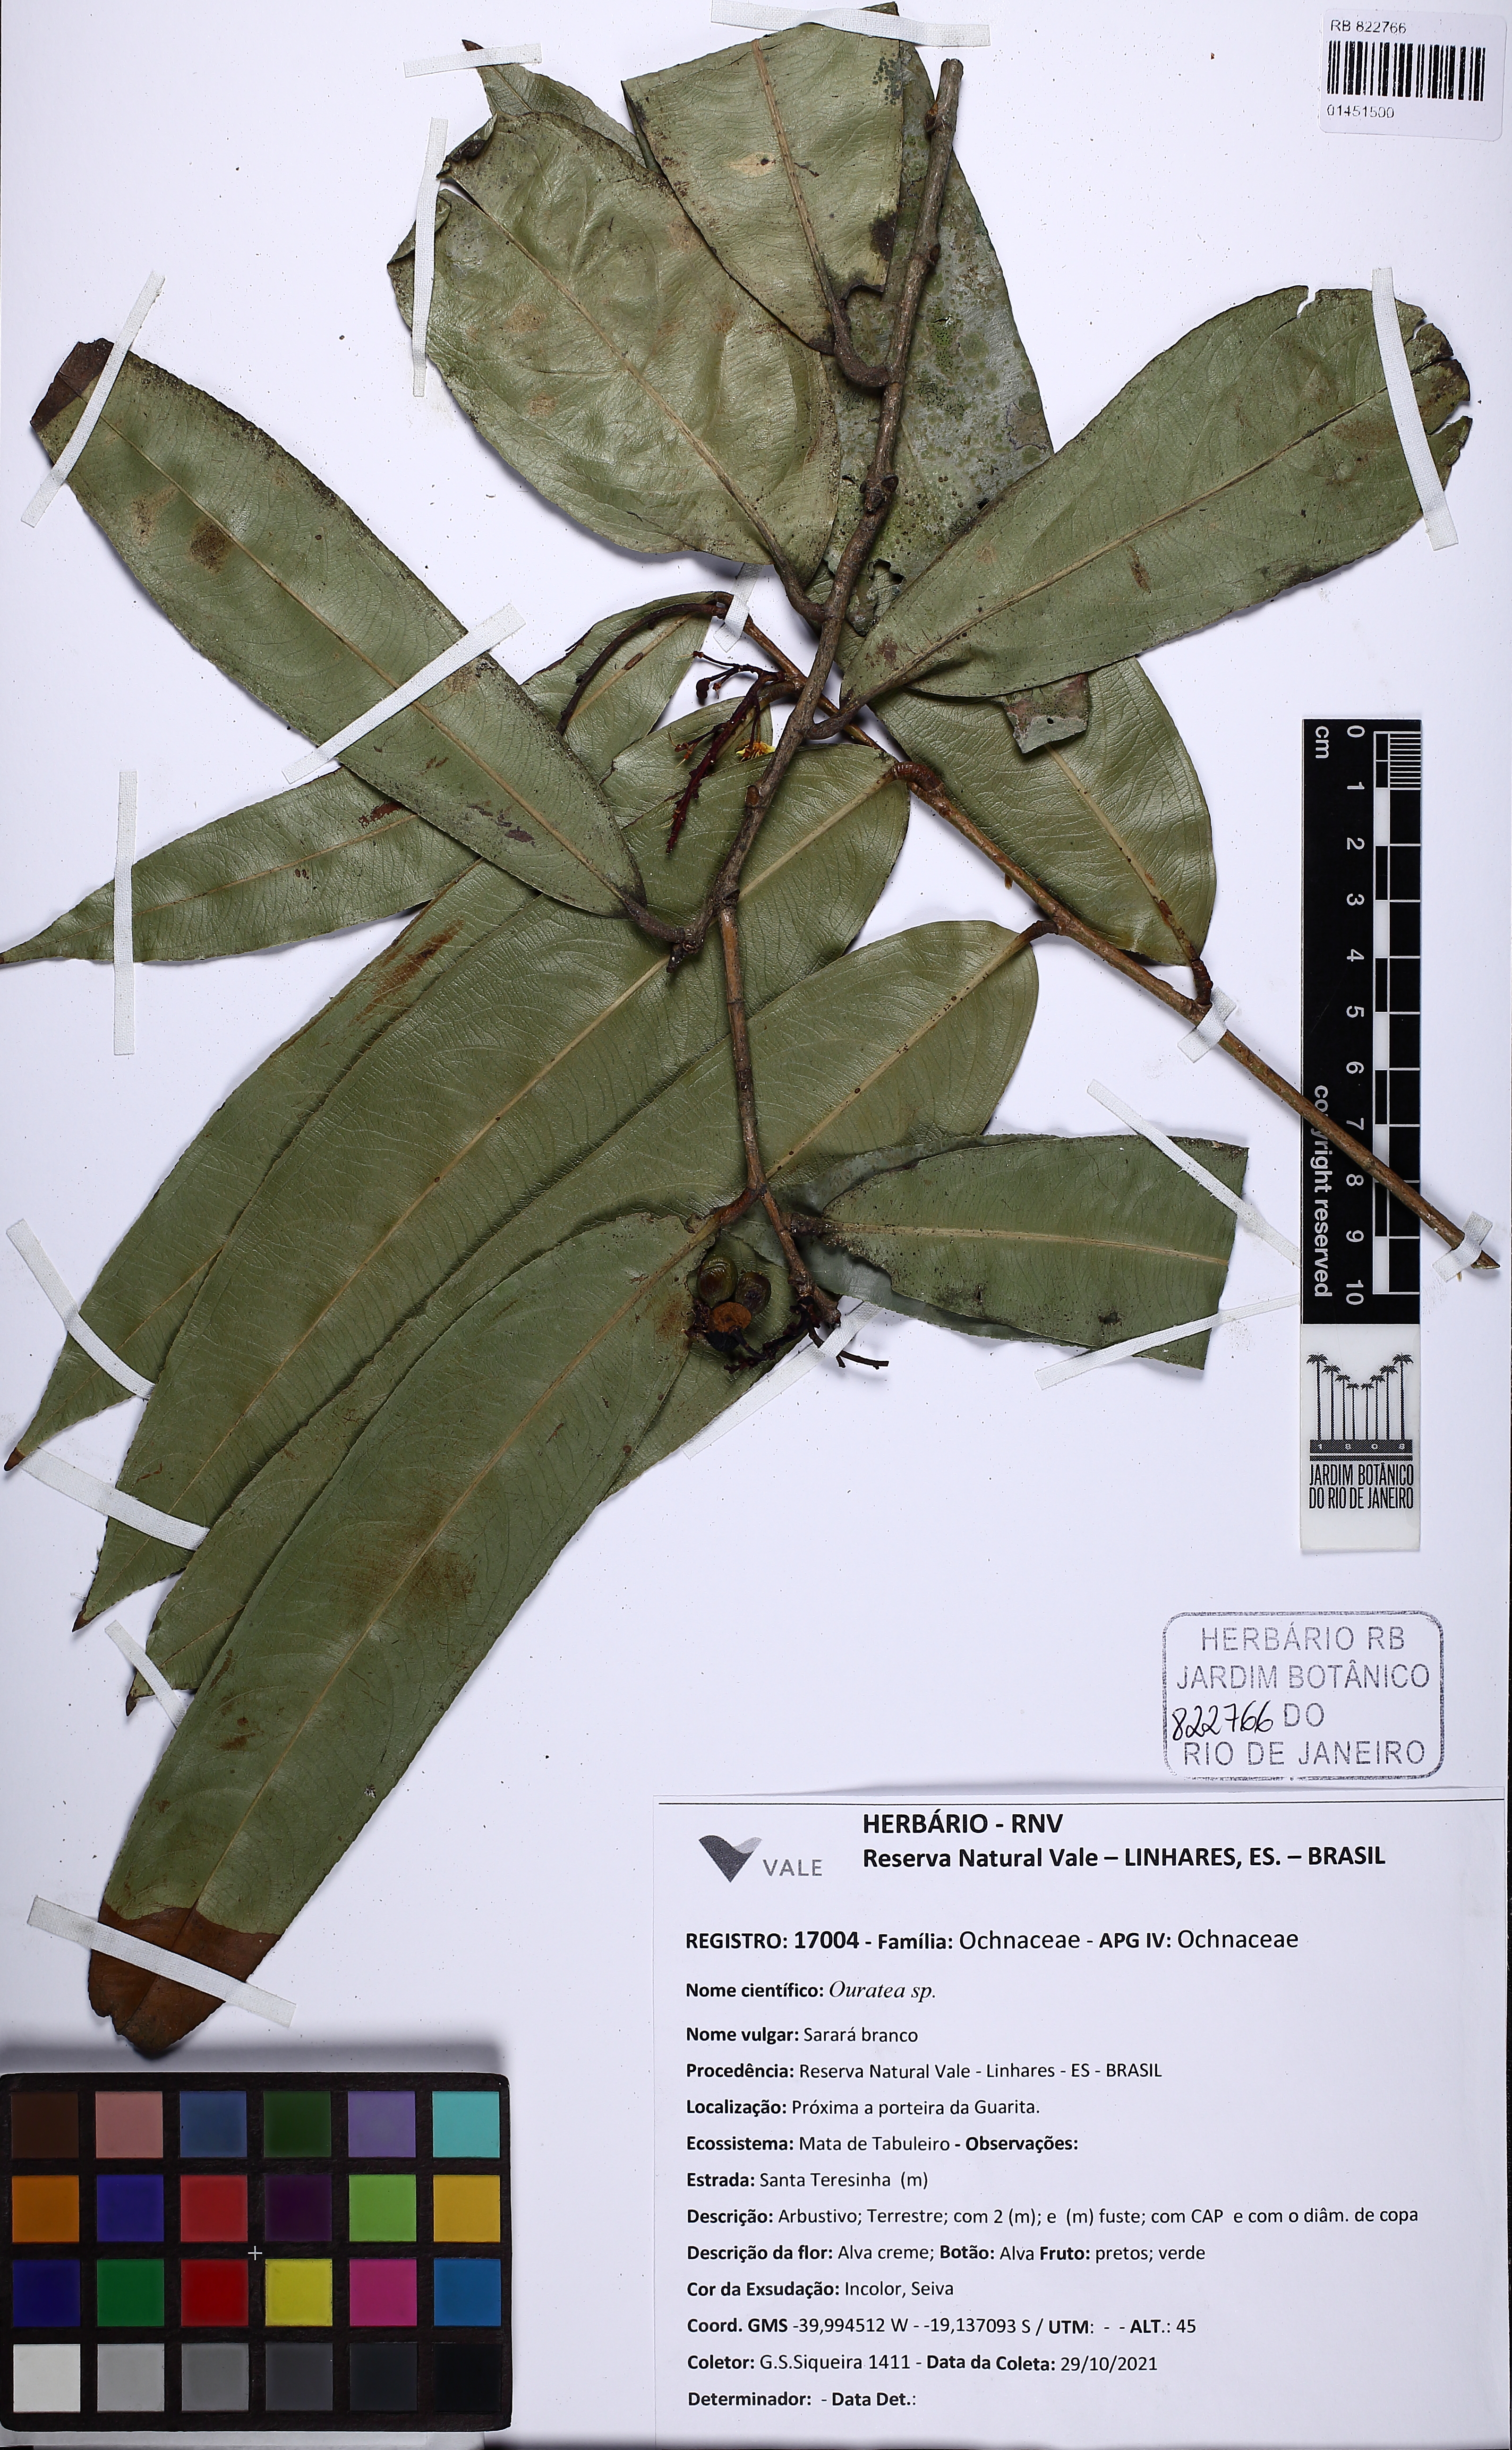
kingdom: Plantae
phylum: Tracheophyta
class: Magnoliopsida
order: Malpighiales
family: Ochnaceae
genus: Ouratea
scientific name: Ouratea
